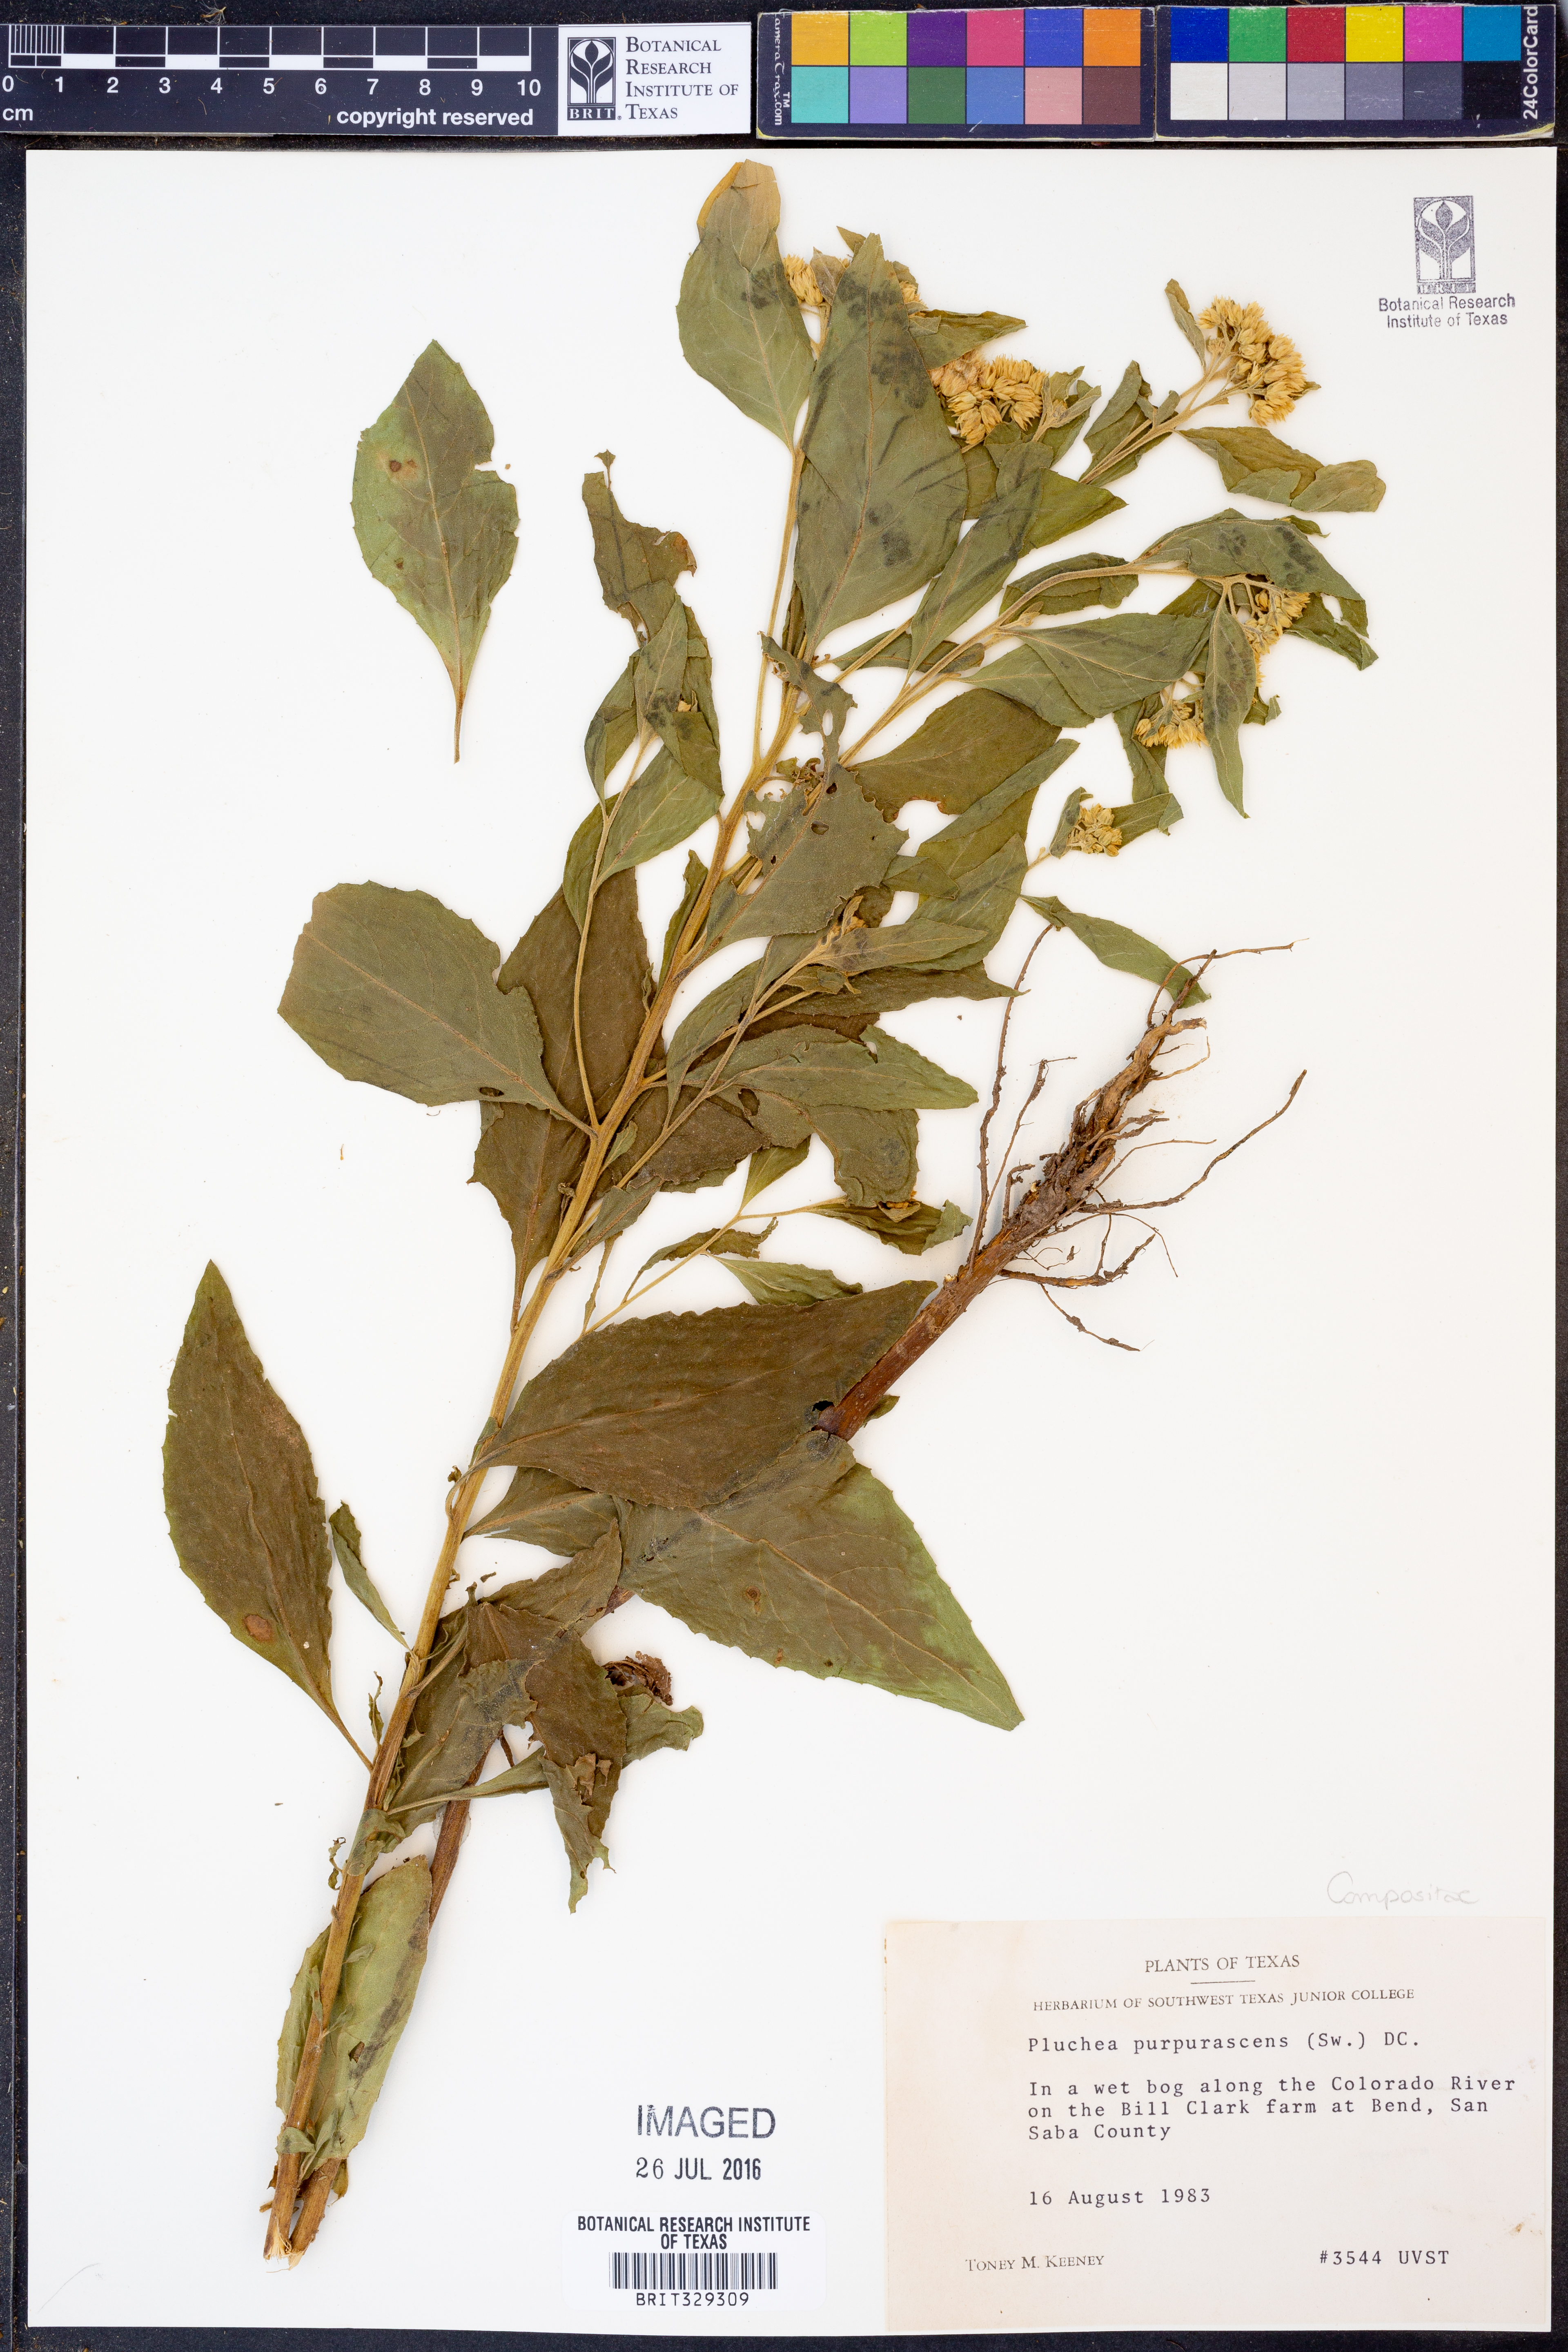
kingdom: Plantae
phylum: Tracheophyta
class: Magnoliopsida
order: Asterales
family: Asteraceae
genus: Pluchea
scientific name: Pluchea odorata
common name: Saltmarsh fleabane
